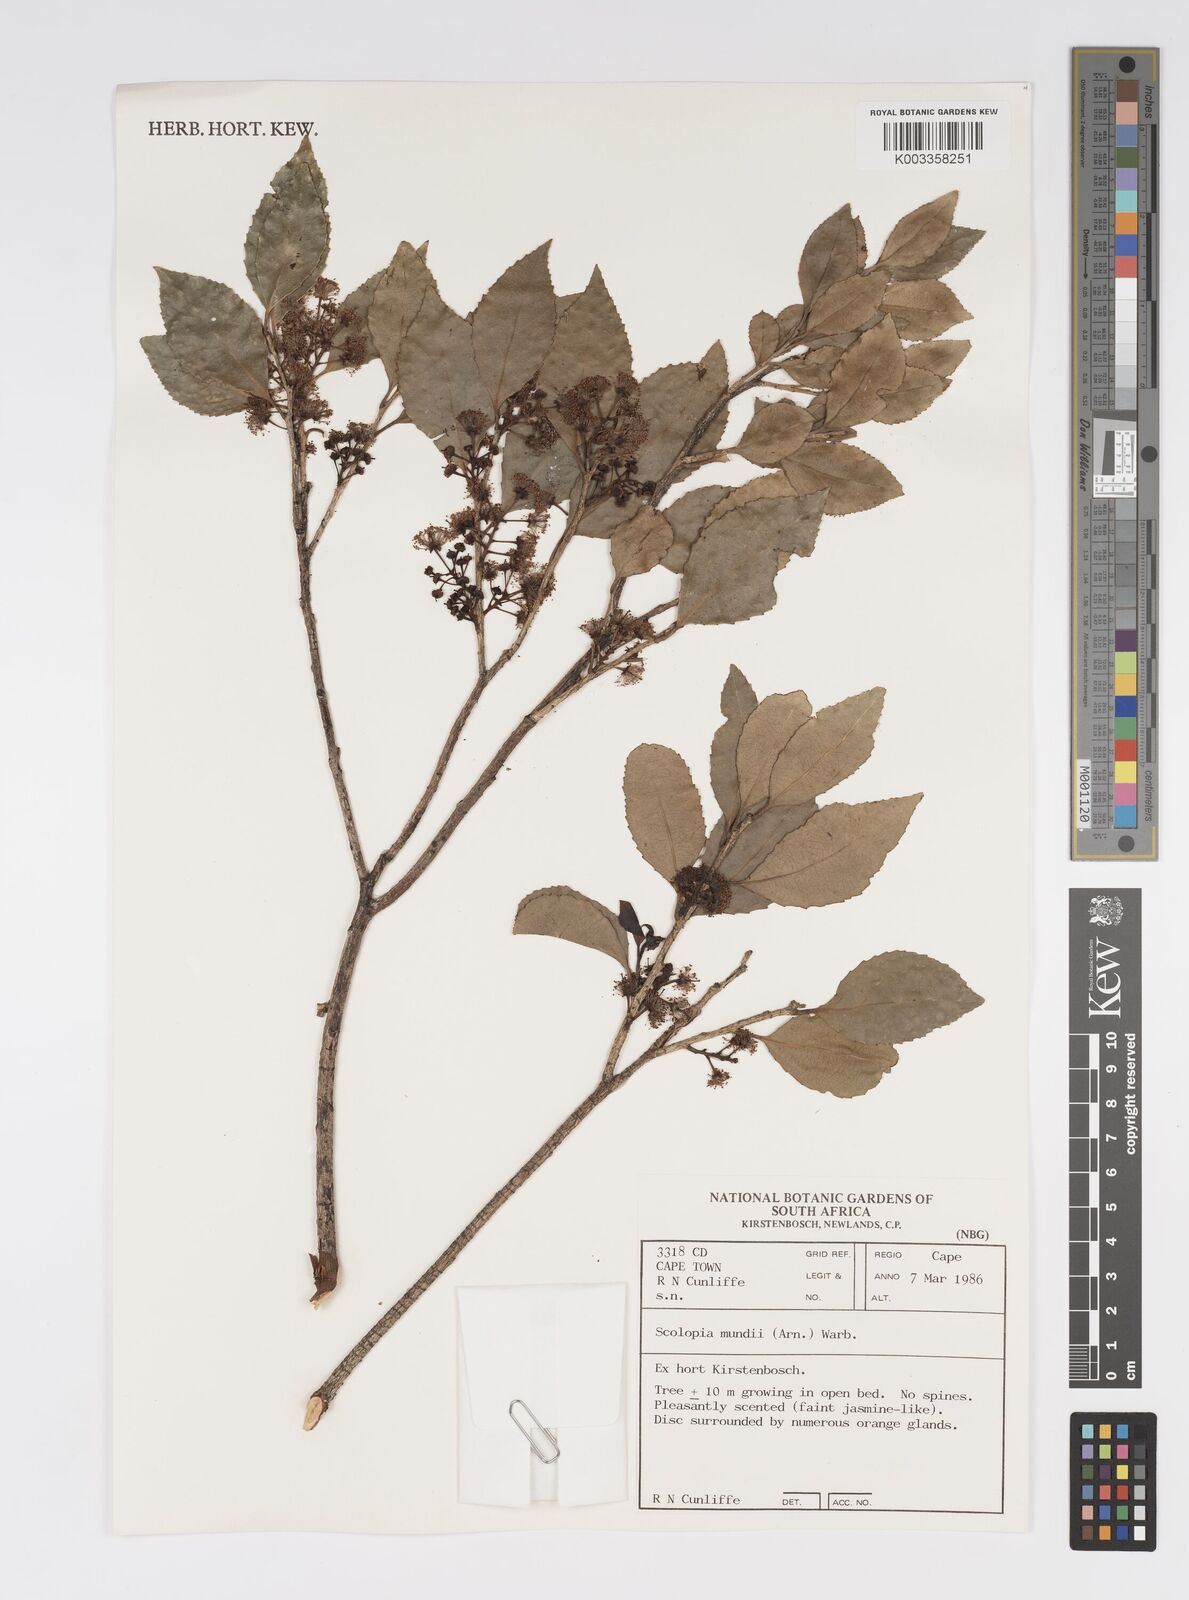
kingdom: Plantae
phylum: Tracheophyta
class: Magnoliopsida
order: Malpighiales
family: Salicaceae
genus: Scolopia
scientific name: Scolopia mundii
